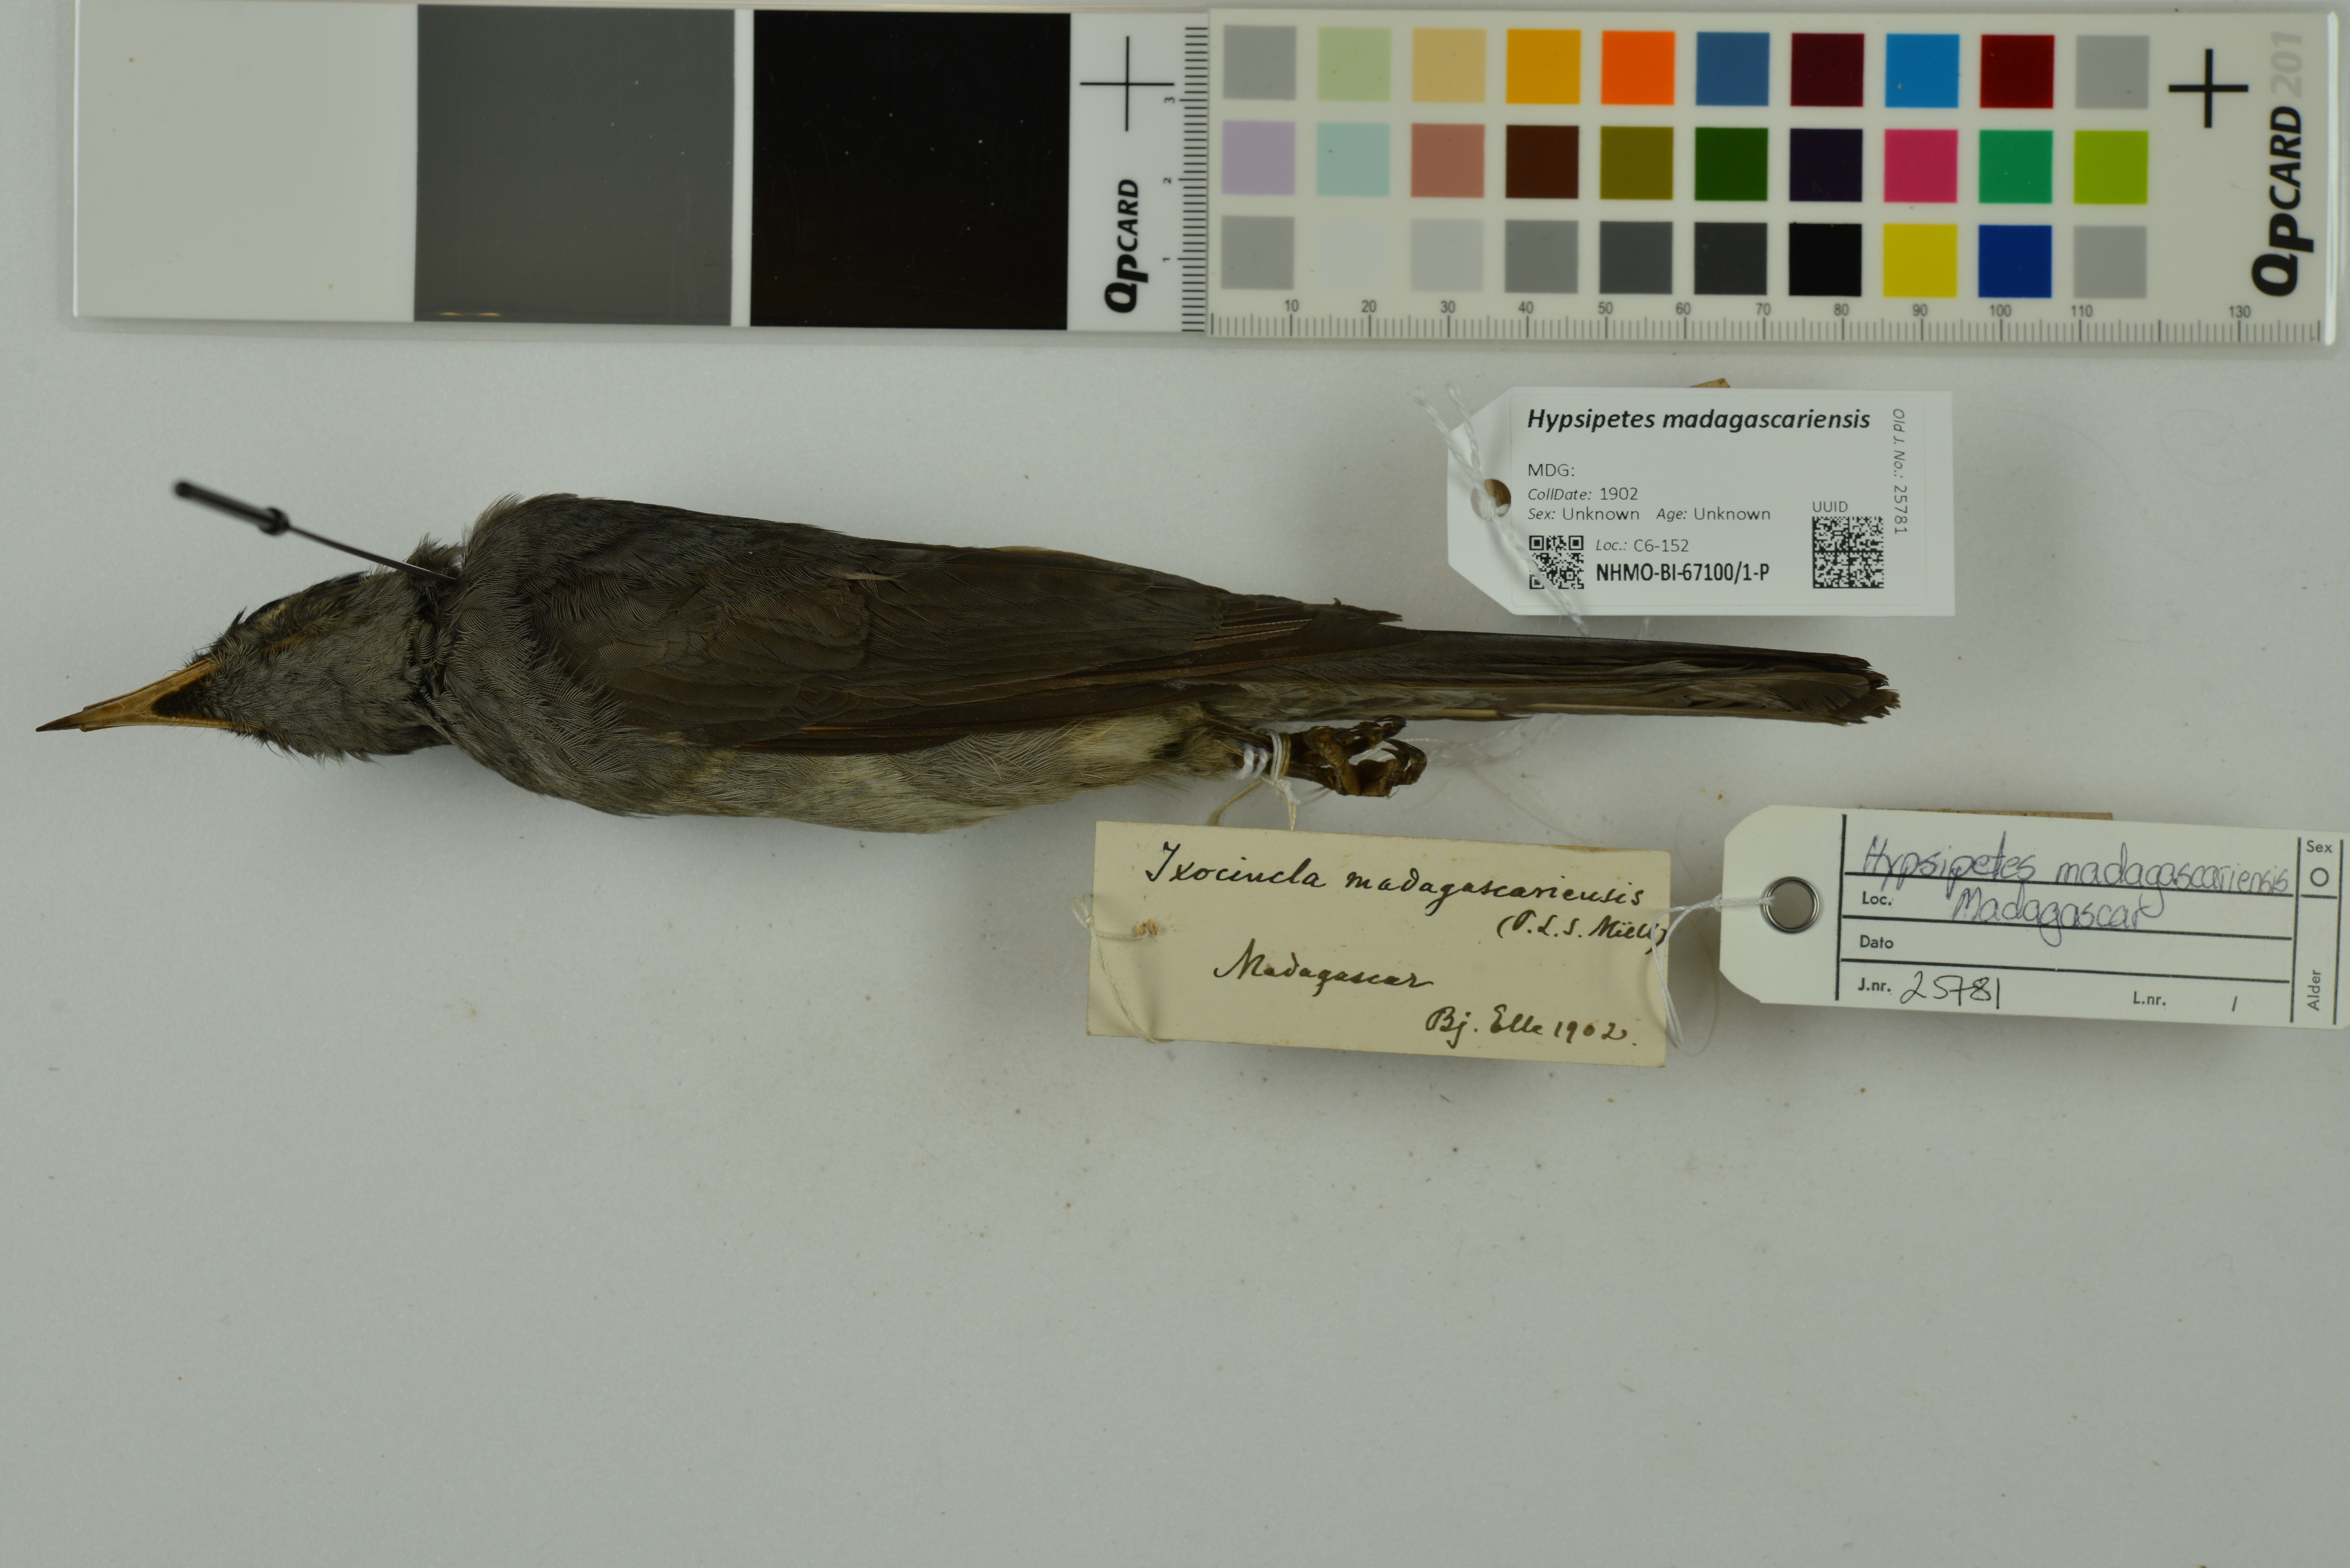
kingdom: Animalia
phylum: Chordata
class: Aves
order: Passeriformes
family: Pycnonotidae
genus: Hypsipetes
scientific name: Hypsipetes madagascariensis
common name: Malagasy bulbul
